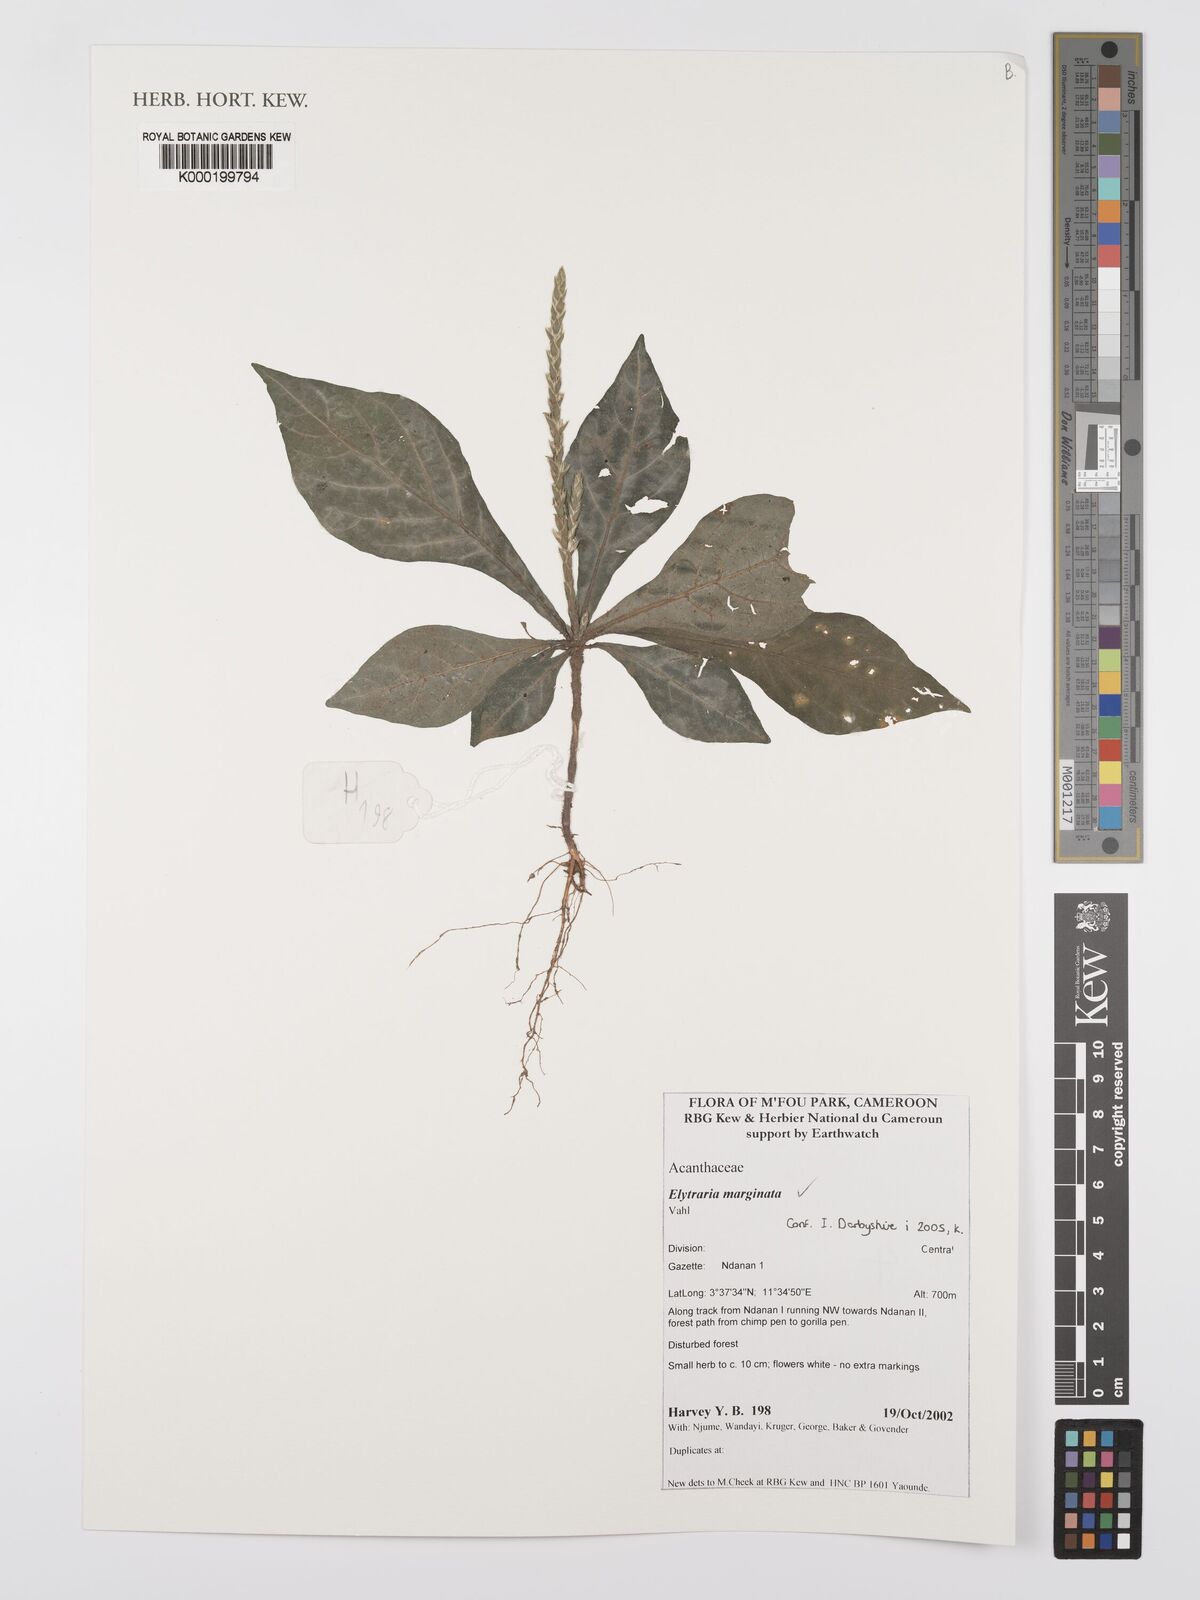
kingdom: Plantae
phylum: Tracheophyta
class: Magnoliopsida
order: Lamiales
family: Acanthaceae
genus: Elytraria
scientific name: Elytraria marginata
